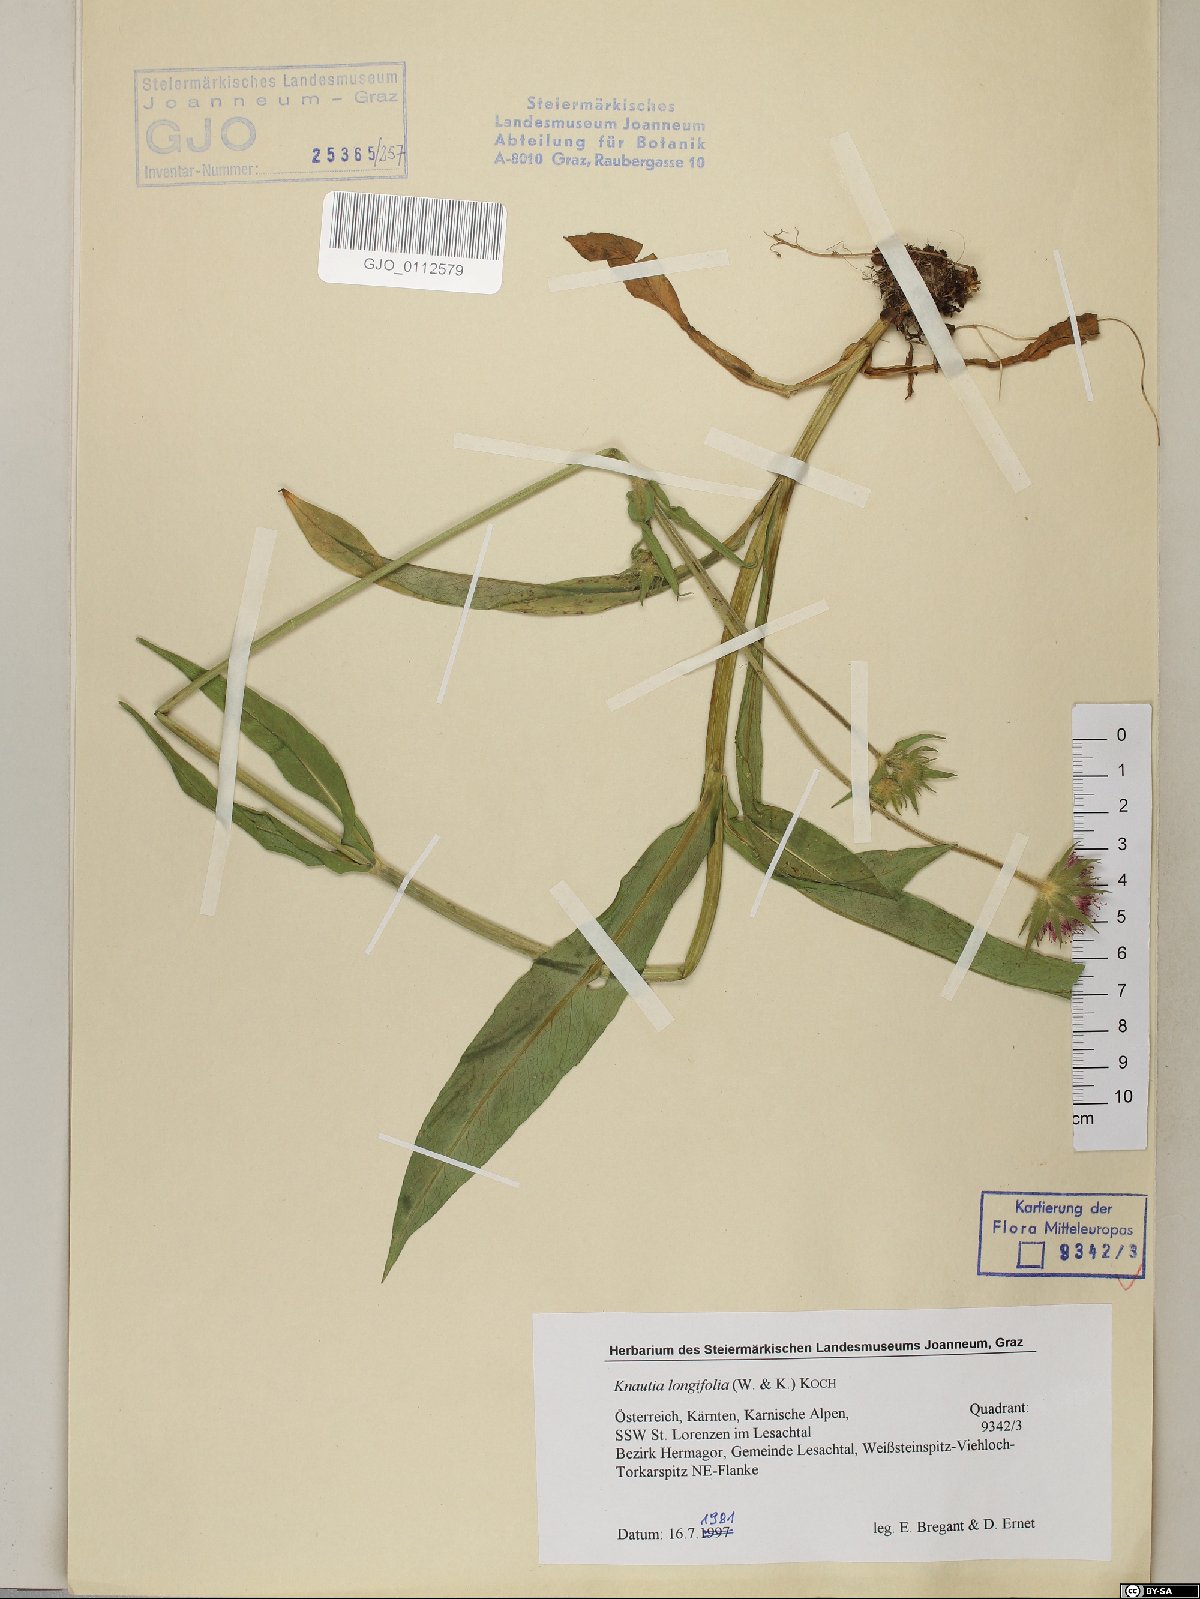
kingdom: Plantae
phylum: Tracheophyta
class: Magnoliopsida
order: Dipsacales
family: Caprifoliaceae
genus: Knautia
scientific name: Knautia longifolia
